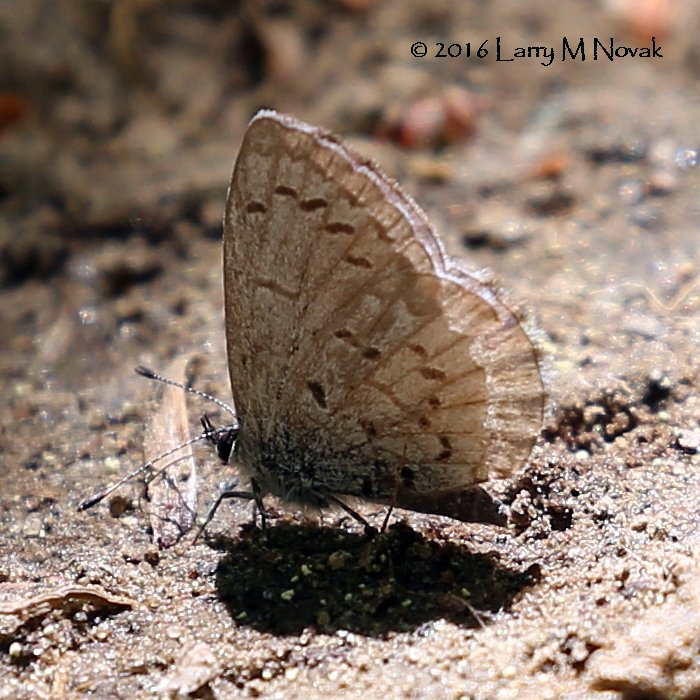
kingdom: Animalia
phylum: Arthropoda
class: Insecta
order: Lepidoptera
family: Lycaenidae
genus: Celastrina
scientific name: Celastrina
